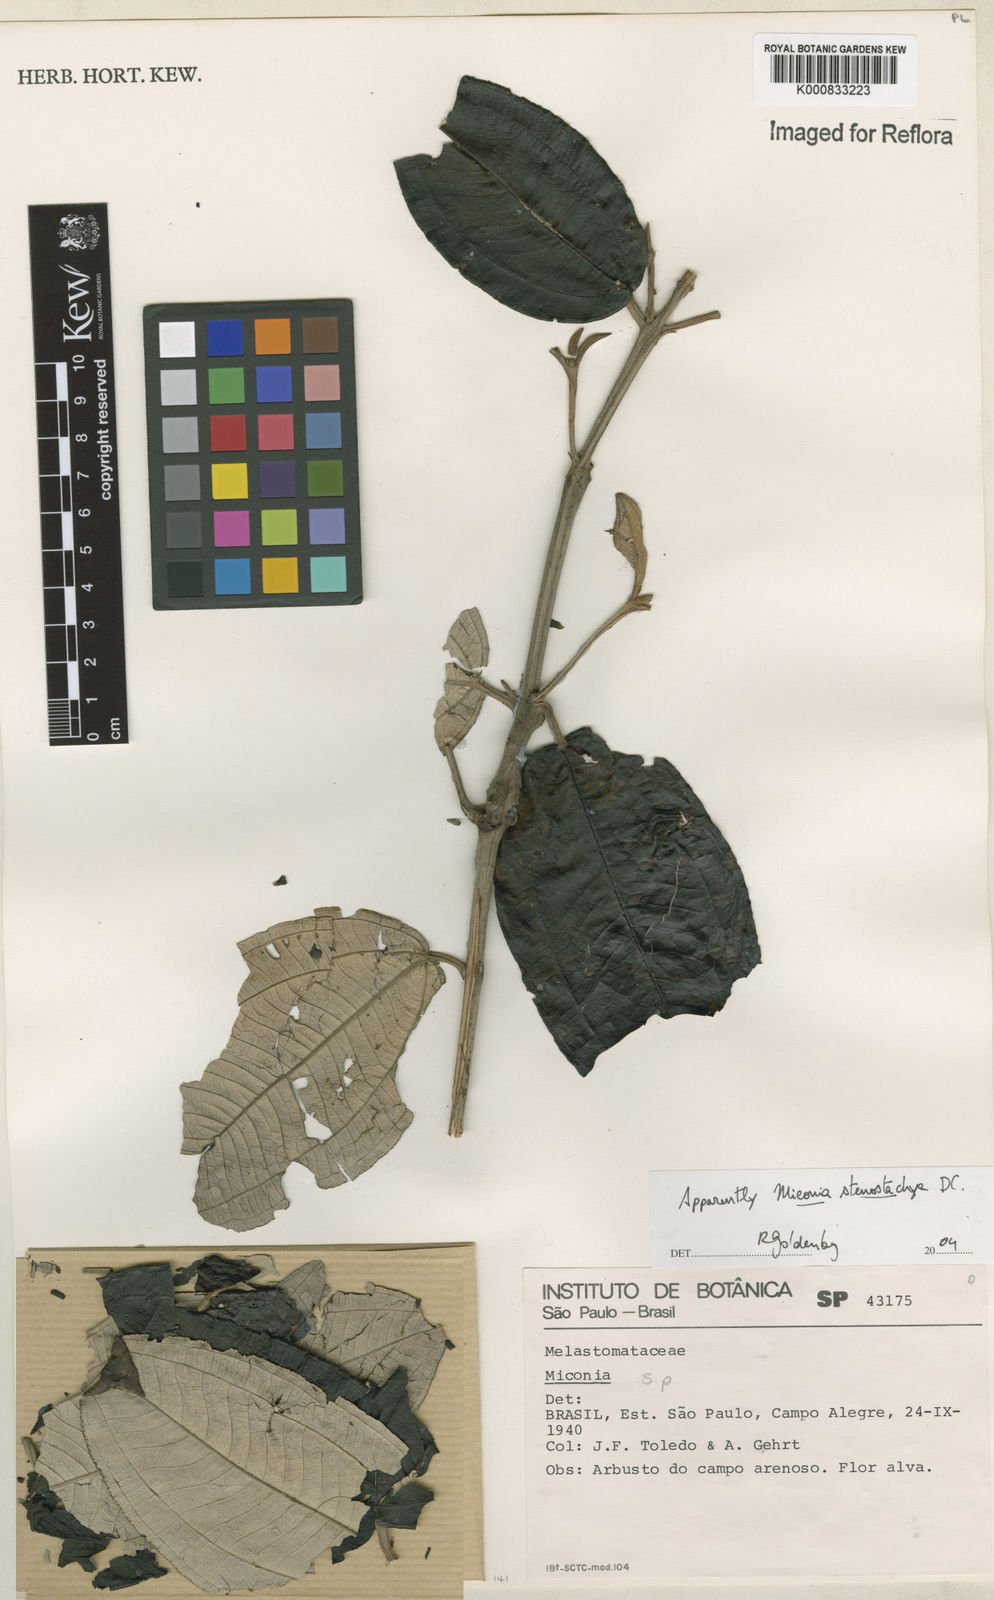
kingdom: Plantae
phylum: Tracheophyta
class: Magnoliopsida
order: Myrtales
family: Melastomataceae
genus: Miconia
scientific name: Miconia stenostachya
